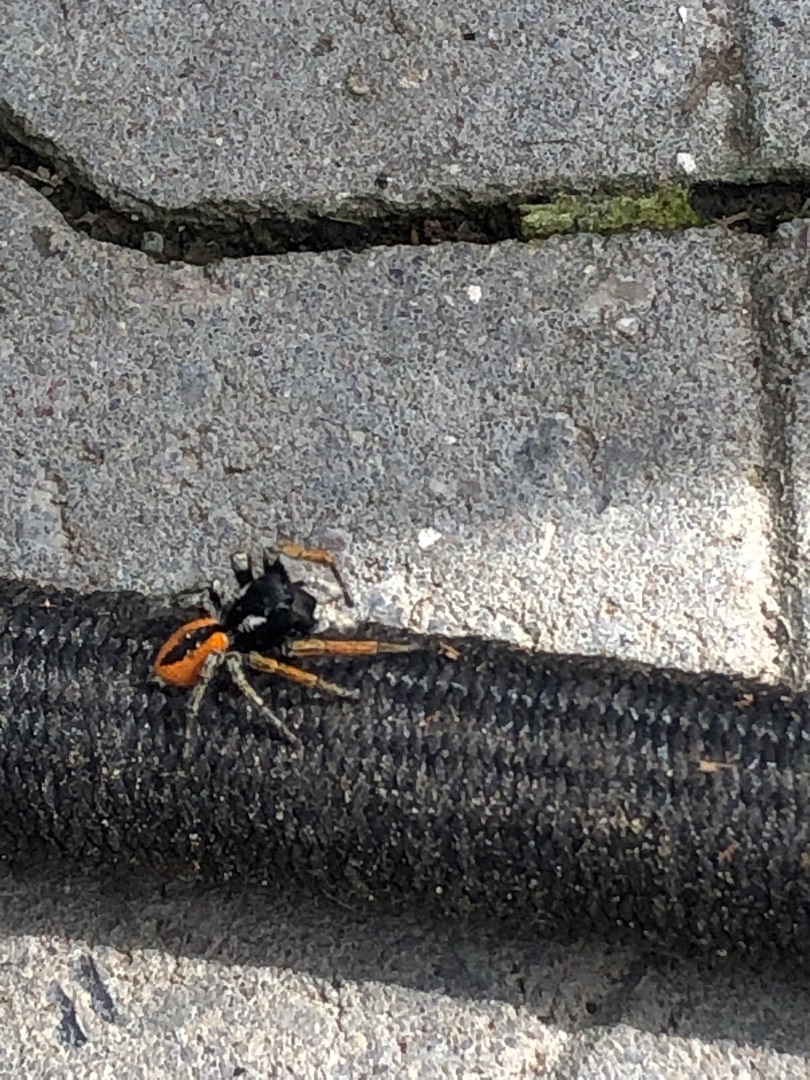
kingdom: Animalia
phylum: Arthropoda
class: Arachnida
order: Araneae
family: Salticidae
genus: Philaeus
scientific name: Philaeus chrysops
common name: Rødbuget springedderkop
